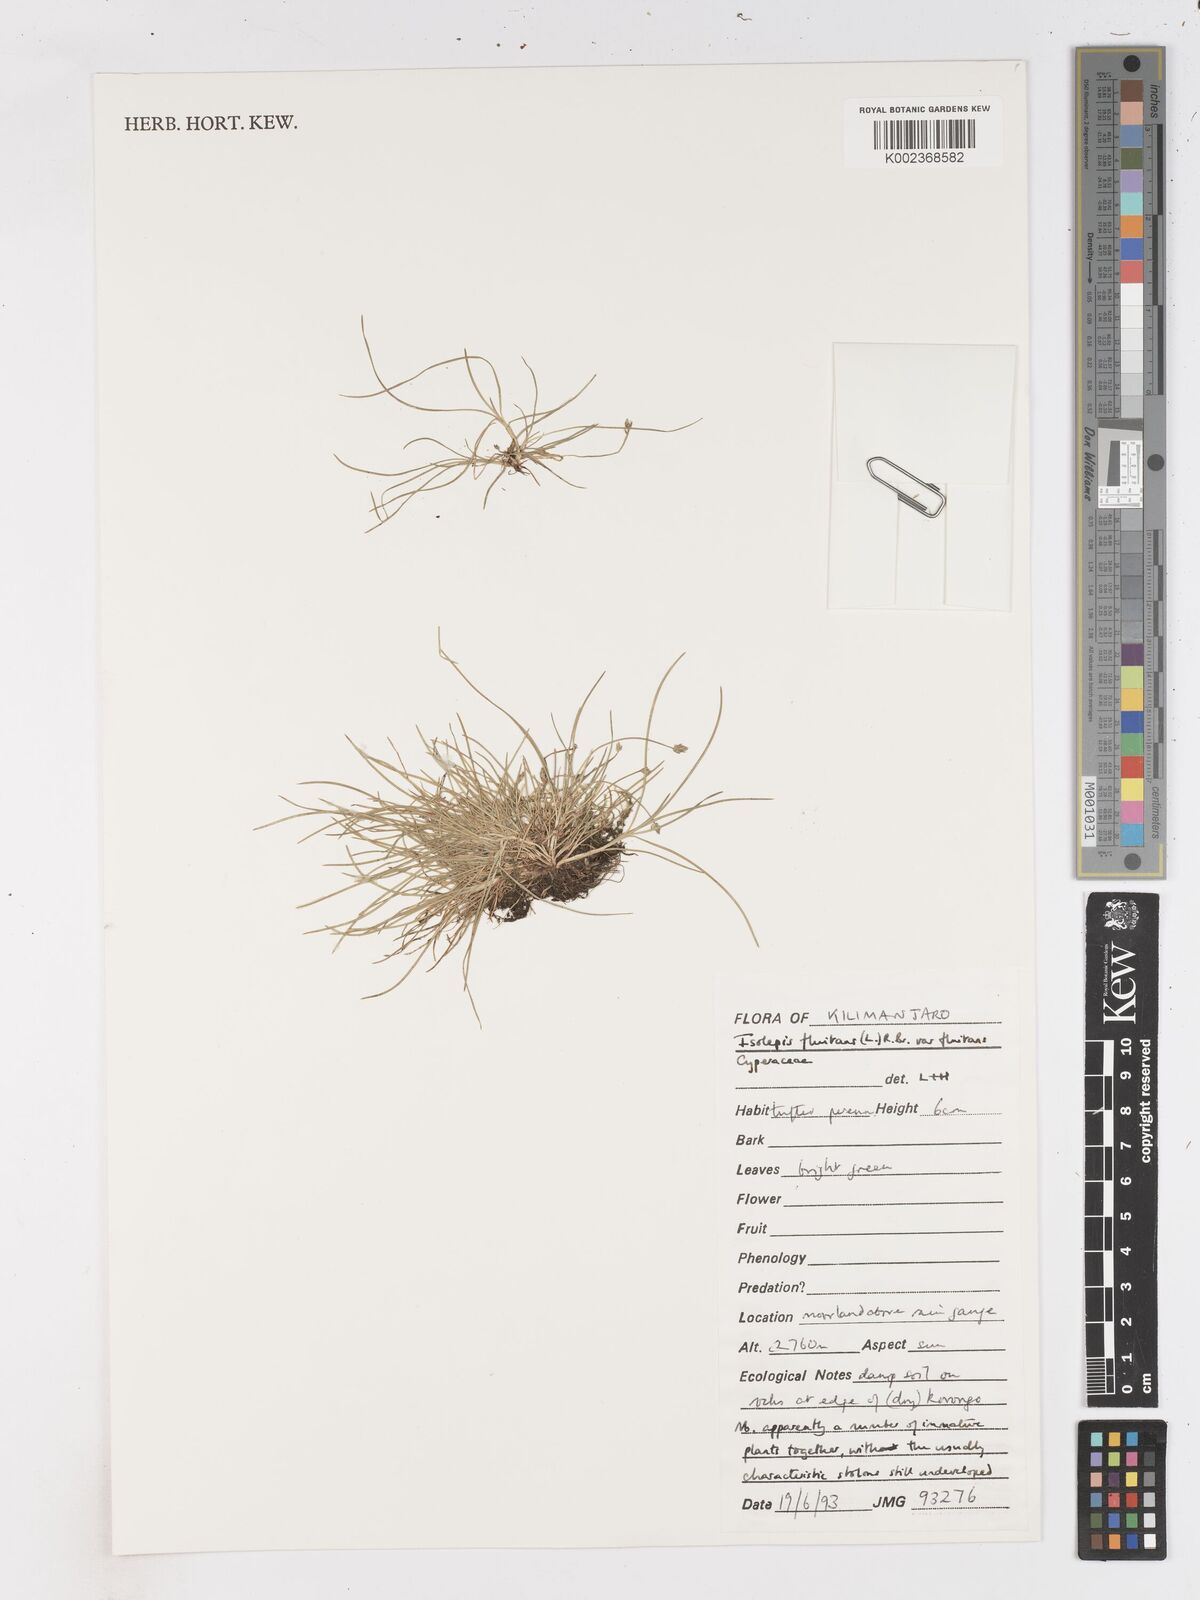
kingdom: Plantae
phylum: Tracheophyta
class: Liliopsida
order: Poales
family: Cyperaceae
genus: Isolepis
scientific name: Isolepis fluitans
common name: Floating club-rush
